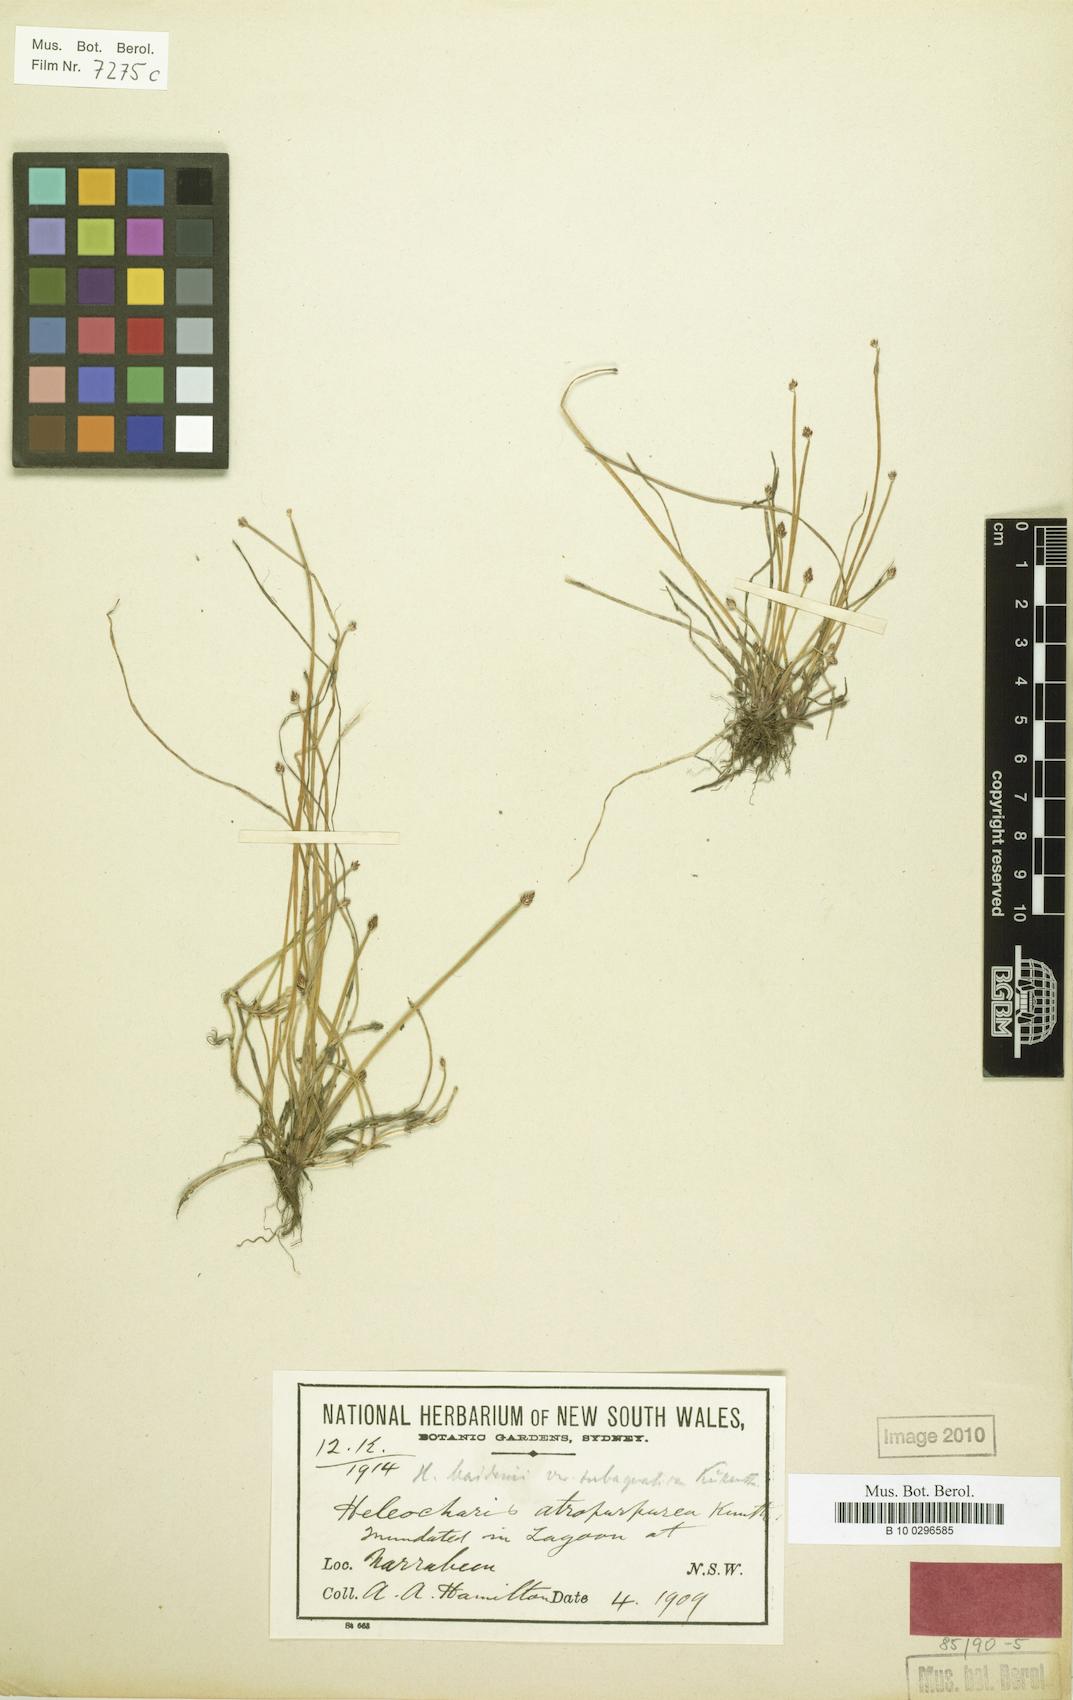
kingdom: Plantae
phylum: Tracheophyta
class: Liliopsida
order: Poales
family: Cyperaceae
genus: Eleocharis
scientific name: Eleocharis maidenii
